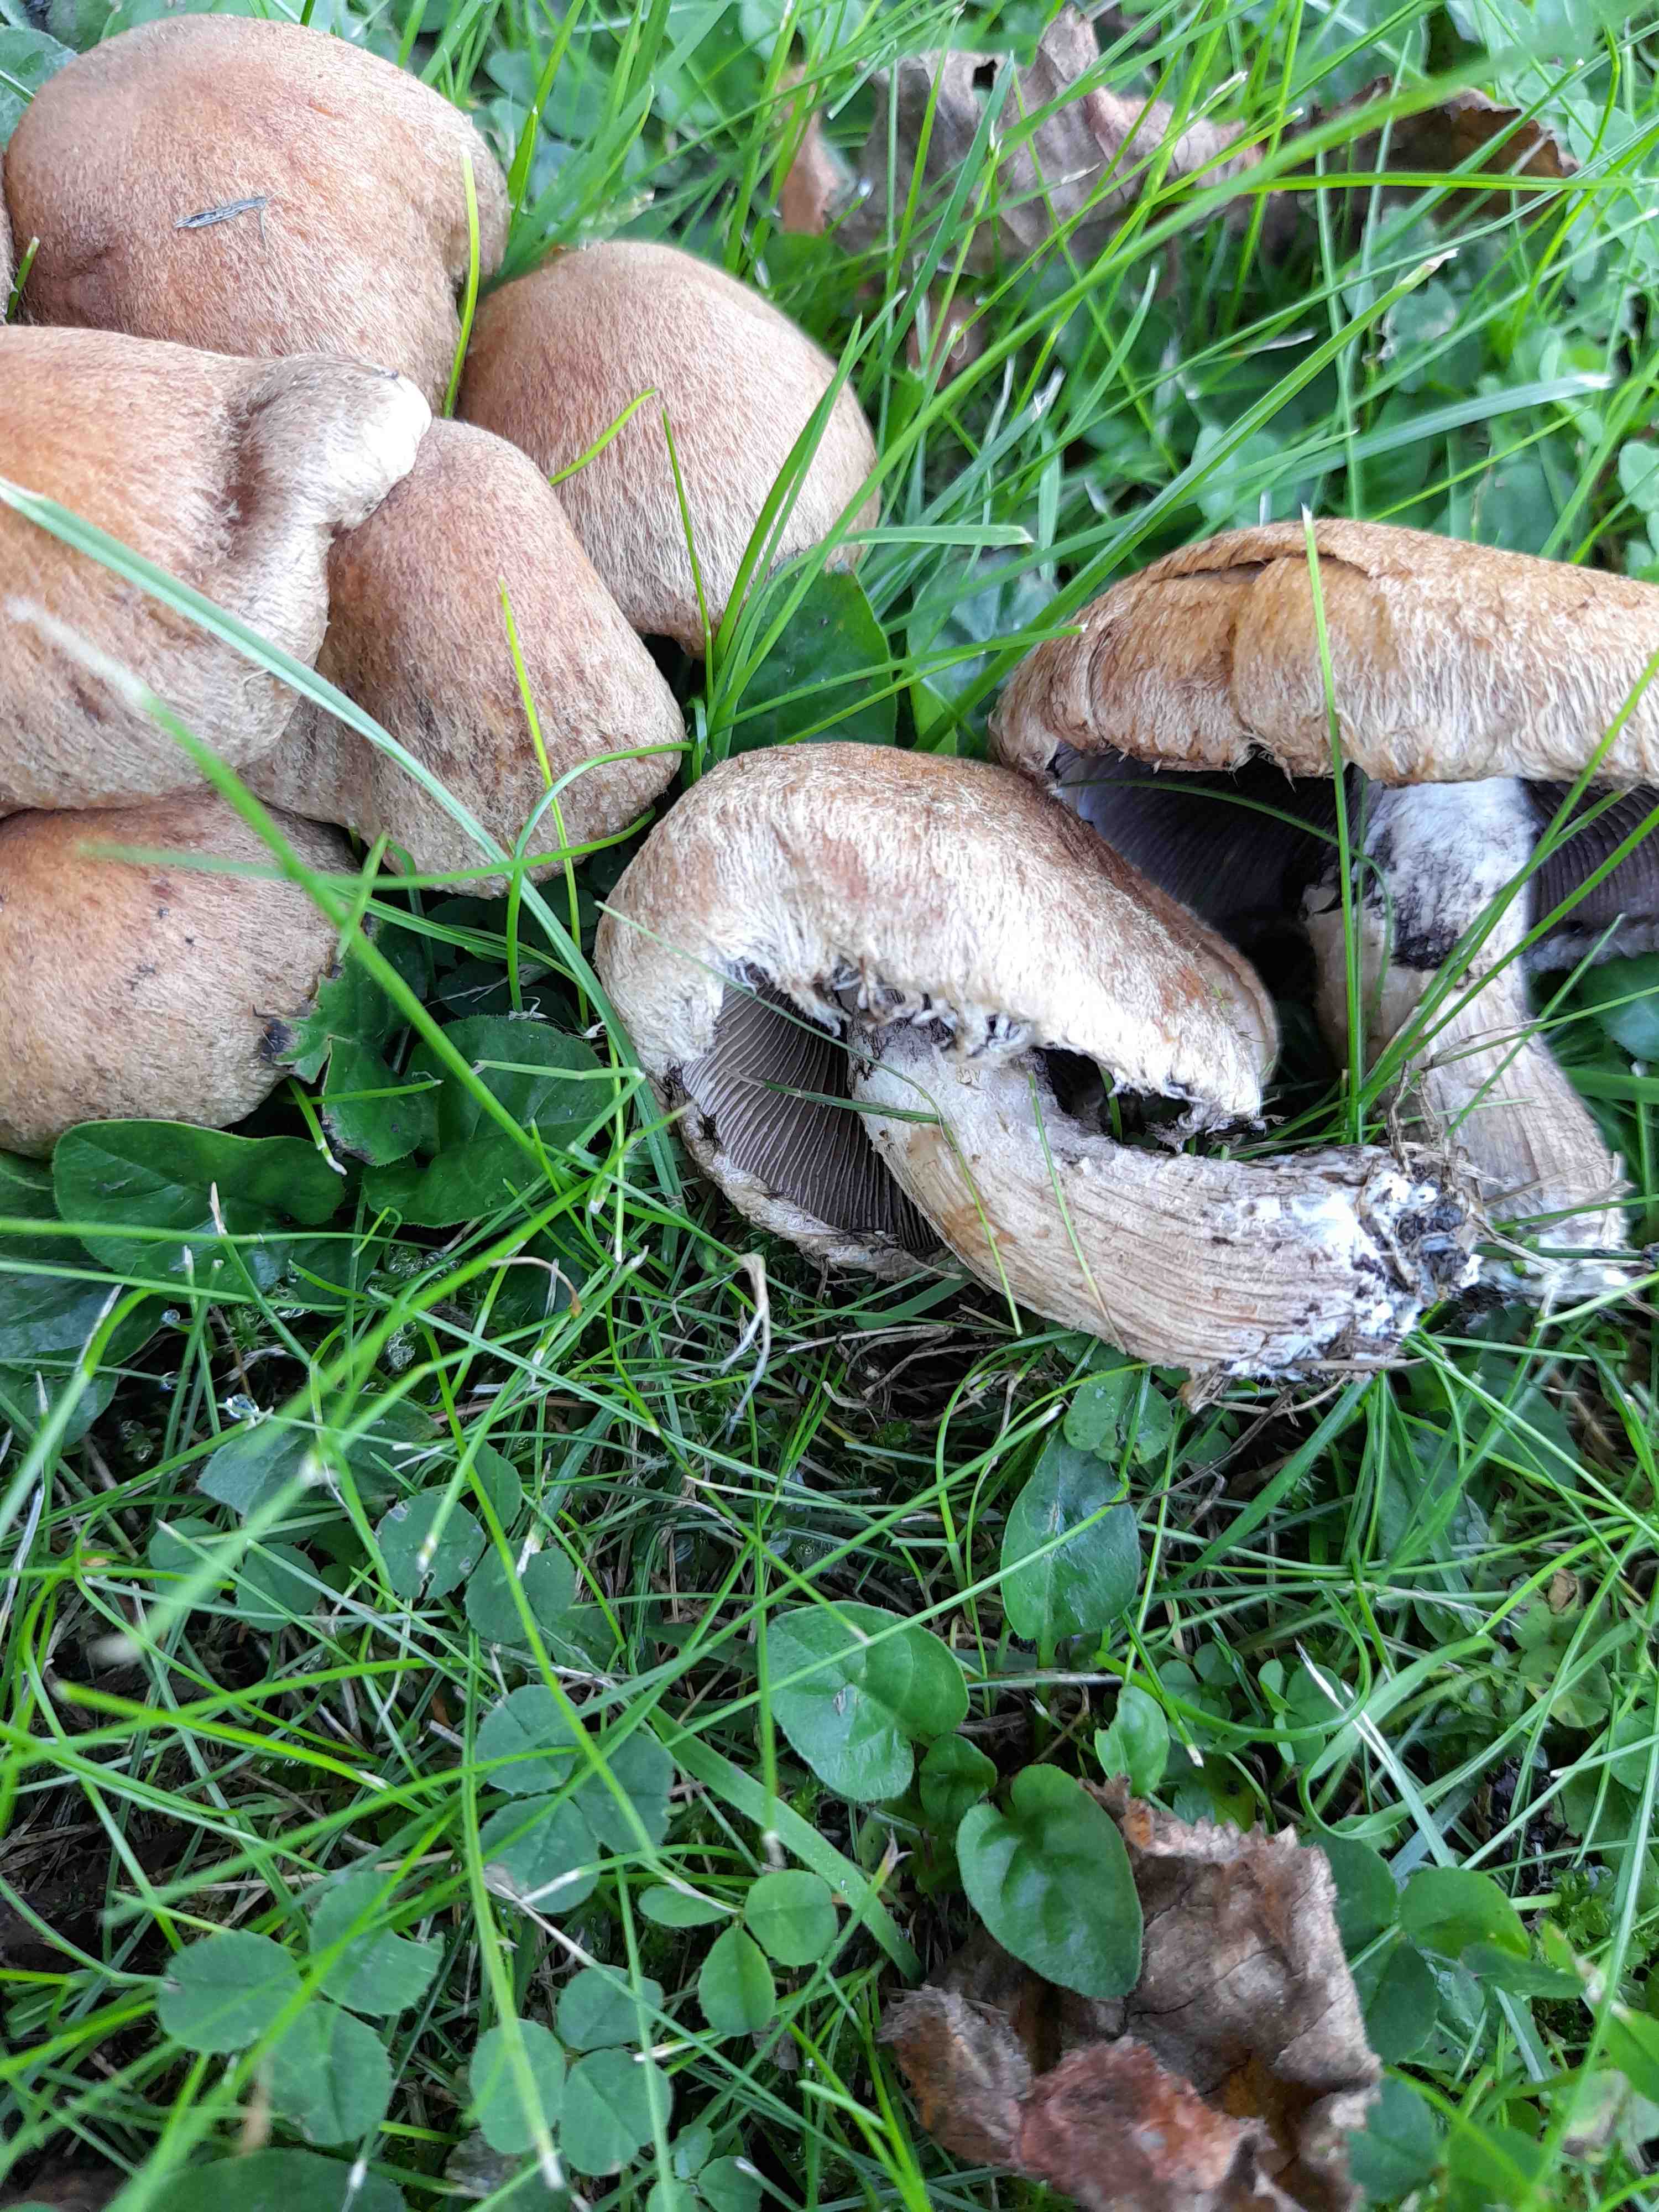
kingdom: Fungi
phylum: Basidiomycota
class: Agaricomycetes
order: Agaricales
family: Psathyrellaceae
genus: Lacrymaria
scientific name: Lacrymaria lacrymabunda
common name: grædende mørkhat
